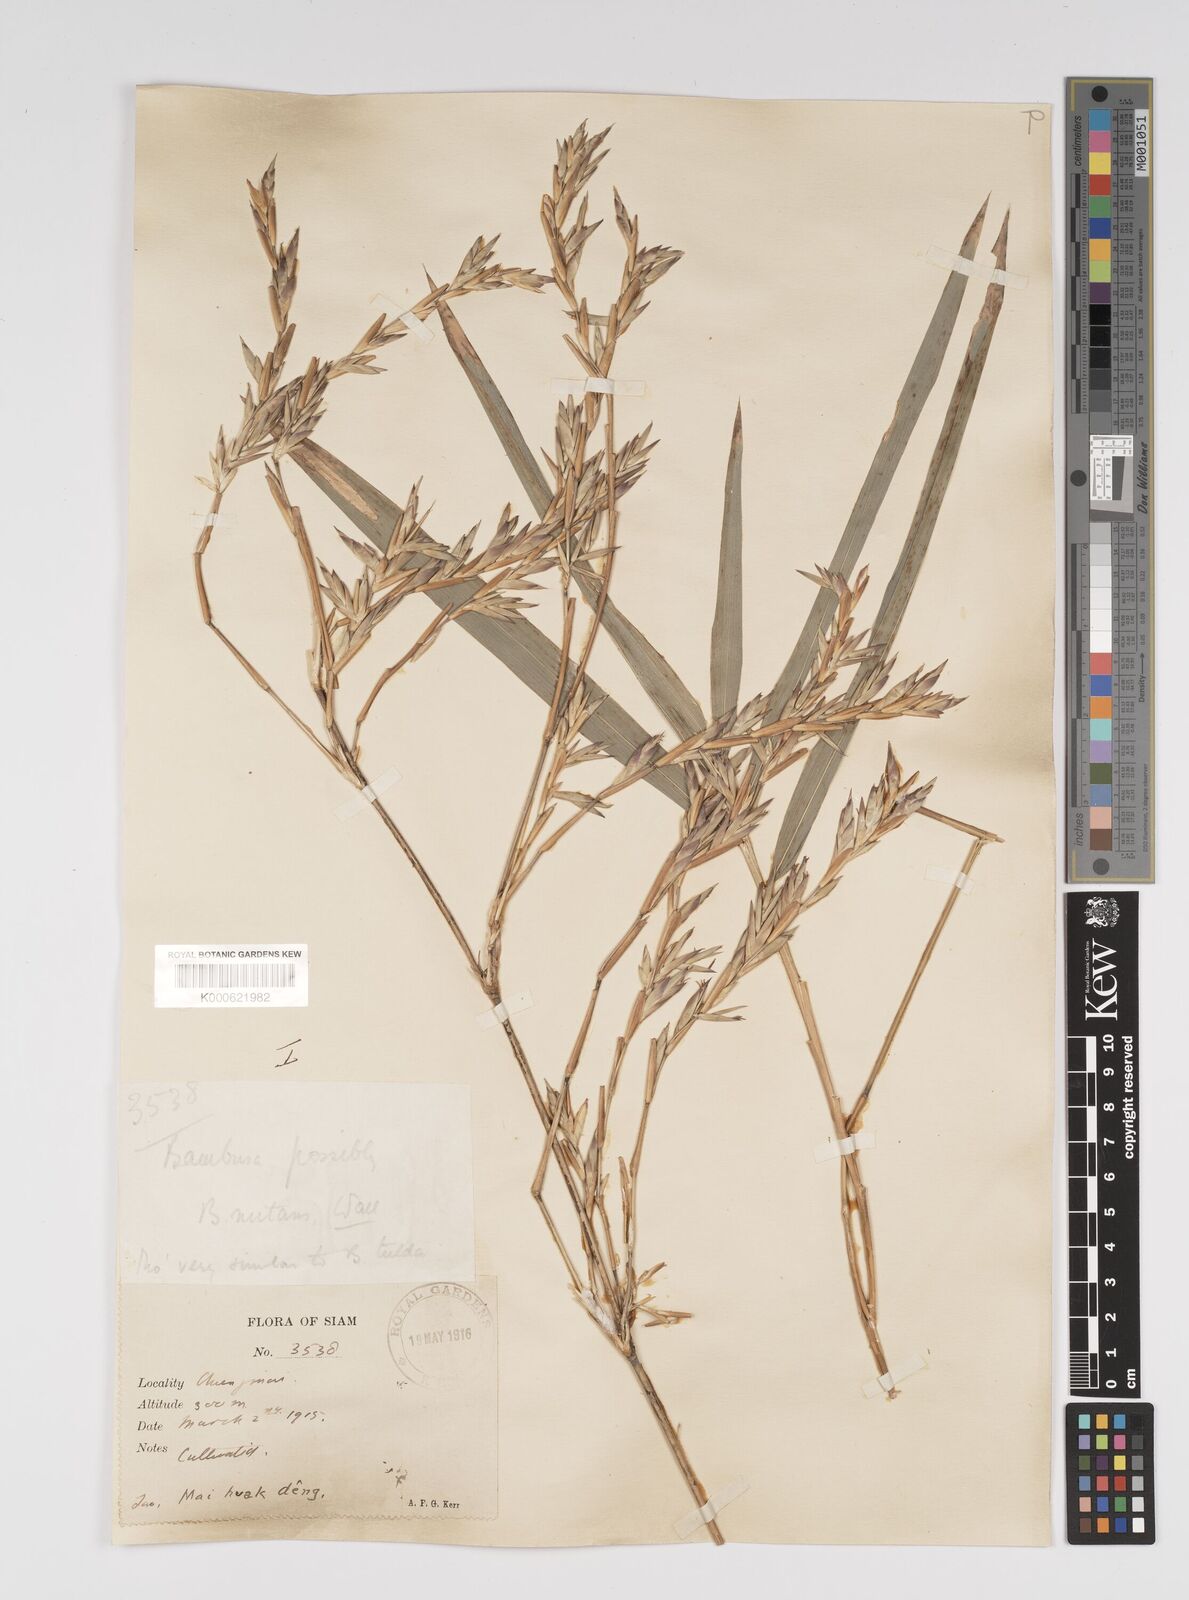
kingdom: Plantae
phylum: Tracheophyta
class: Liliopsida
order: Poales
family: Poaceae
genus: Bambusa
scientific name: Bambusa
